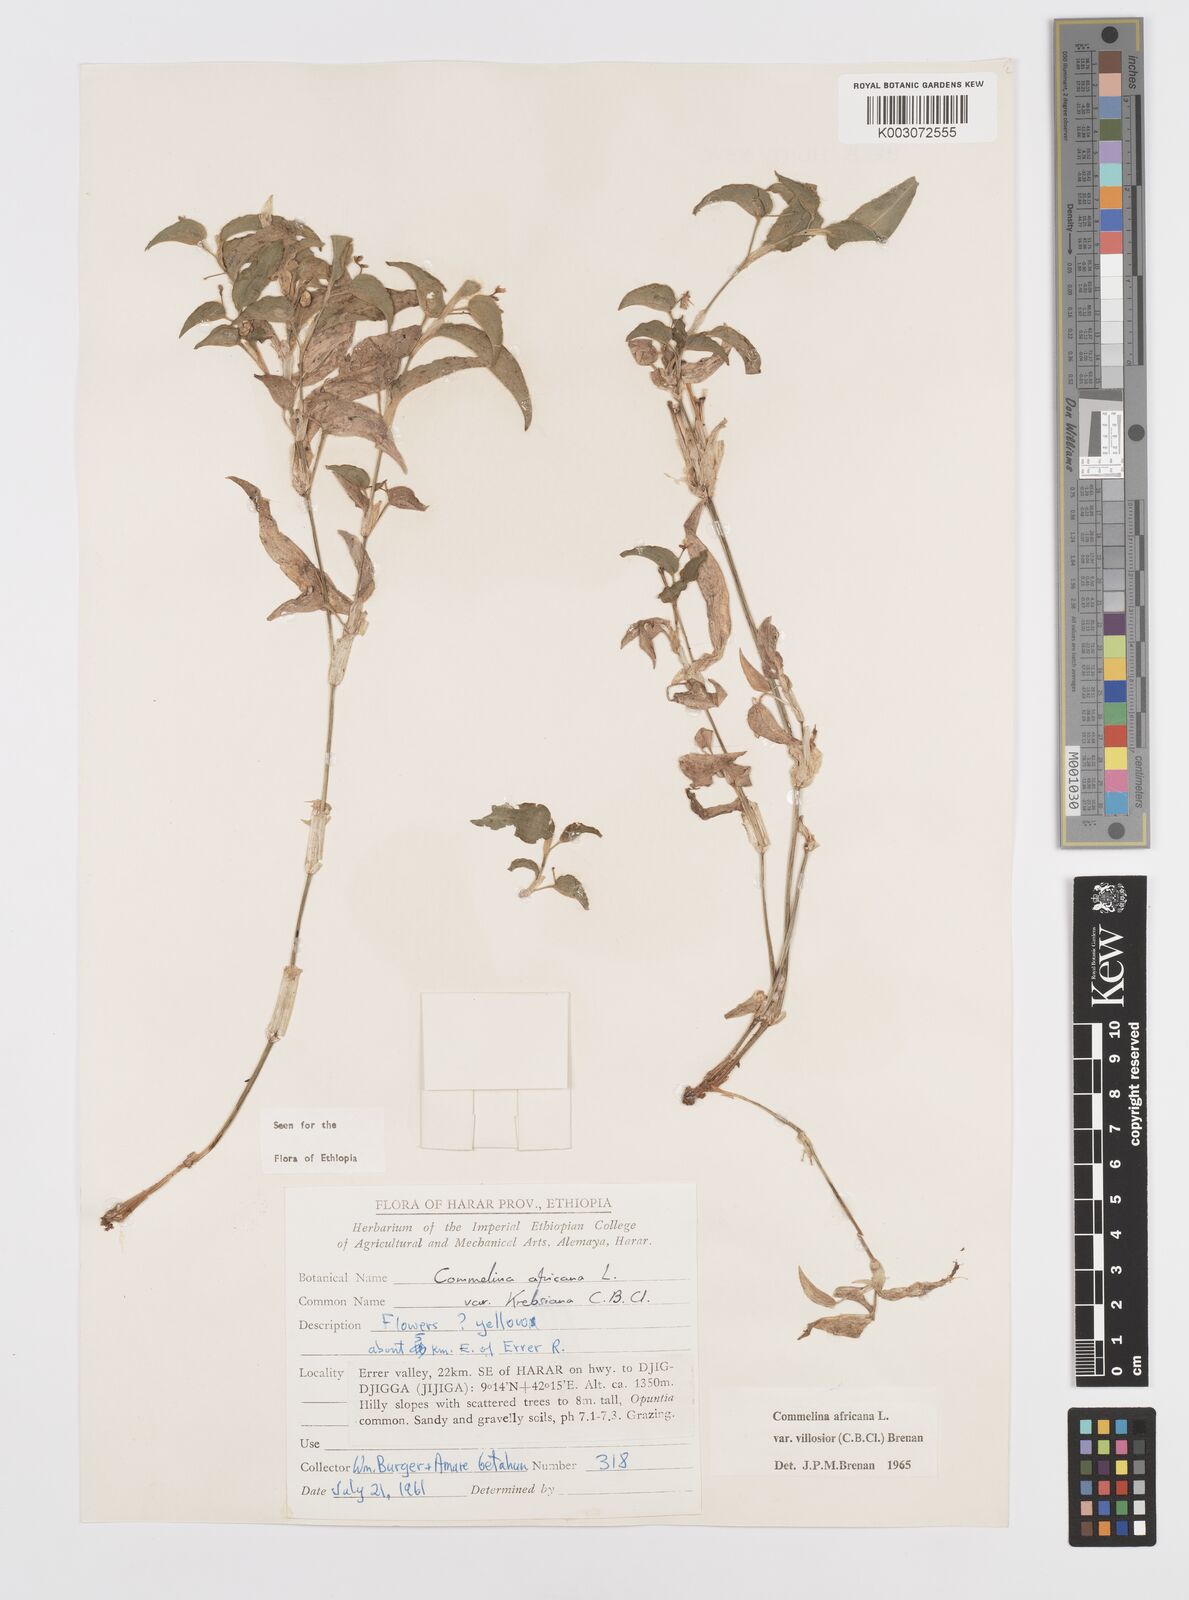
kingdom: Plantae
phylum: Tracheophyta
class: Liliopsida
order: Commelinales
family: Commelinaceae
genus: Commelina
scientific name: Commelina africana
